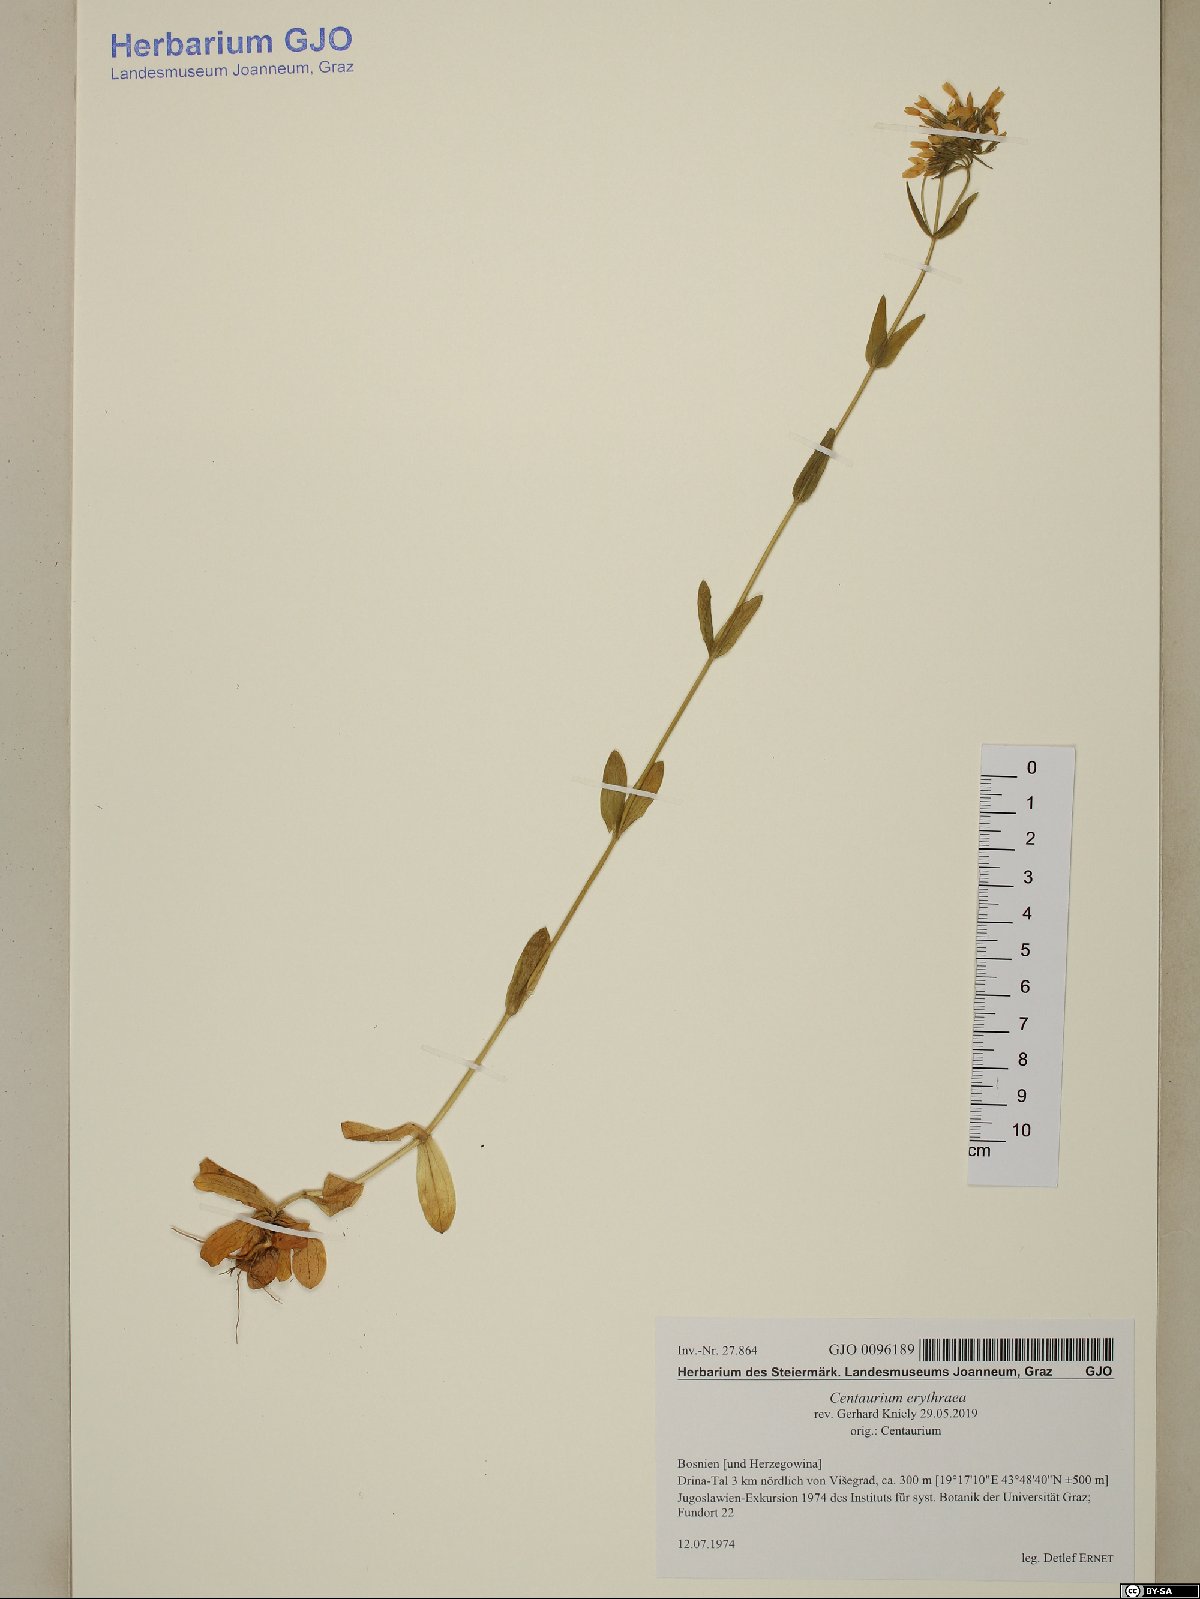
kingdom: Plantae
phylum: Tracheophyta
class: Magnoliopsida
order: Gentianales
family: Gentianaceae
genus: Centaurium
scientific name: Centaurium erythraea
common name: Common centaury
